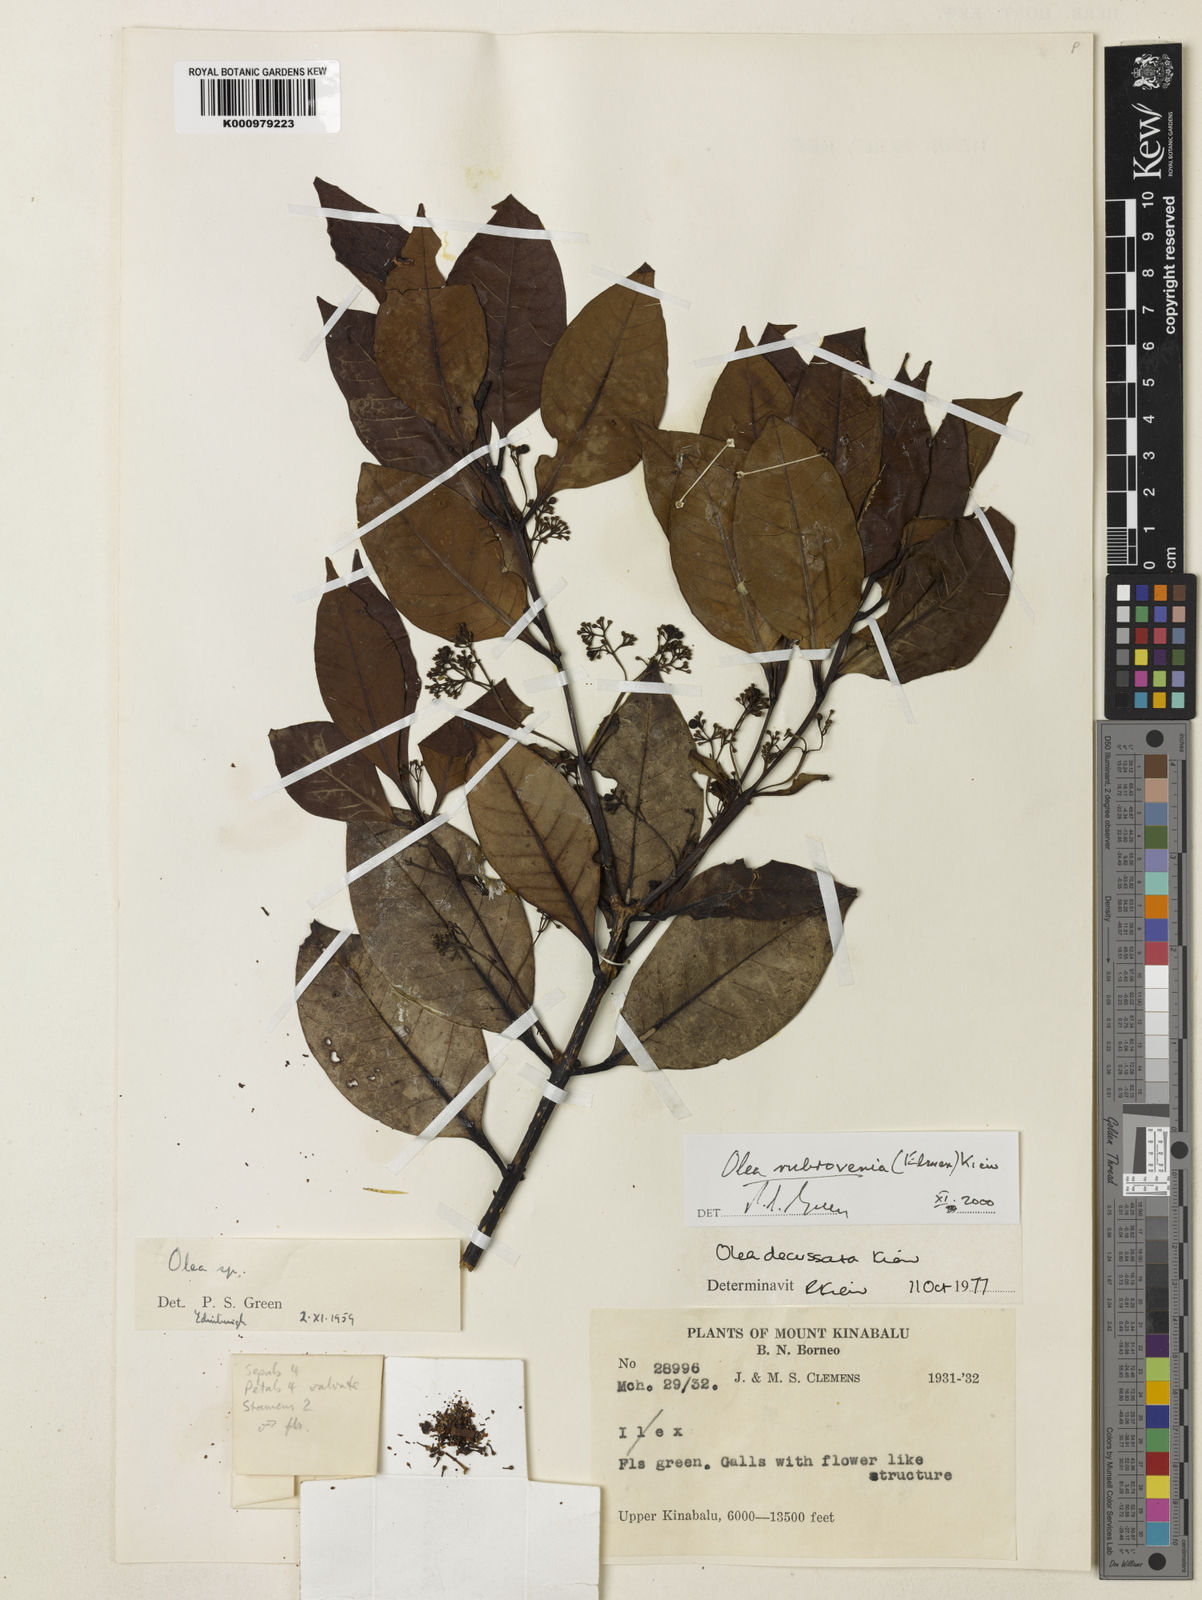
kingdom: Plantae
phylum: Tracheophyta
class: Magnoliopsida
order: Lamiales
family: Oleaceae
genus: Tetrapilus
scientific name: Tetrapilus rubrovenius
